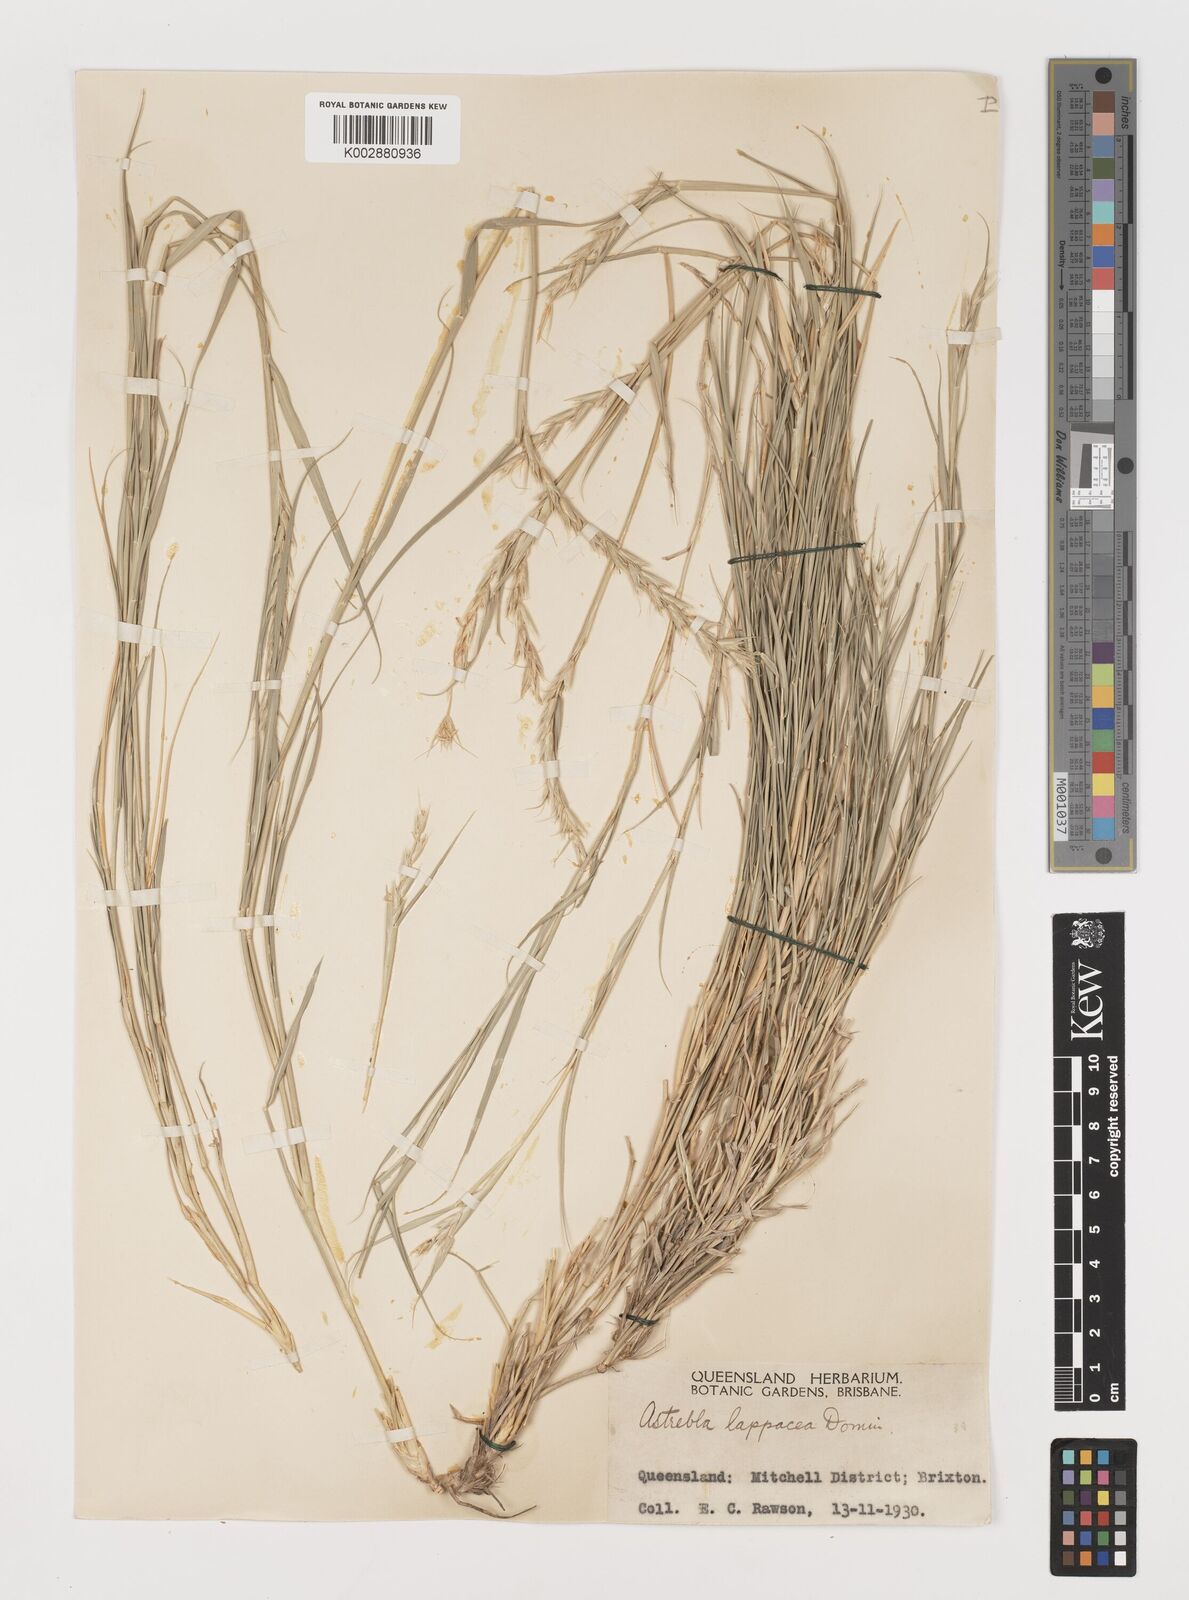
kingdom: Plantae
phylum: Tracheophyta
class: Liliopsida
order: Poales
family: Poaceae
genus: Astrebla
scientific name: Astrebla lappacea
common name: Curly mitchell grass
